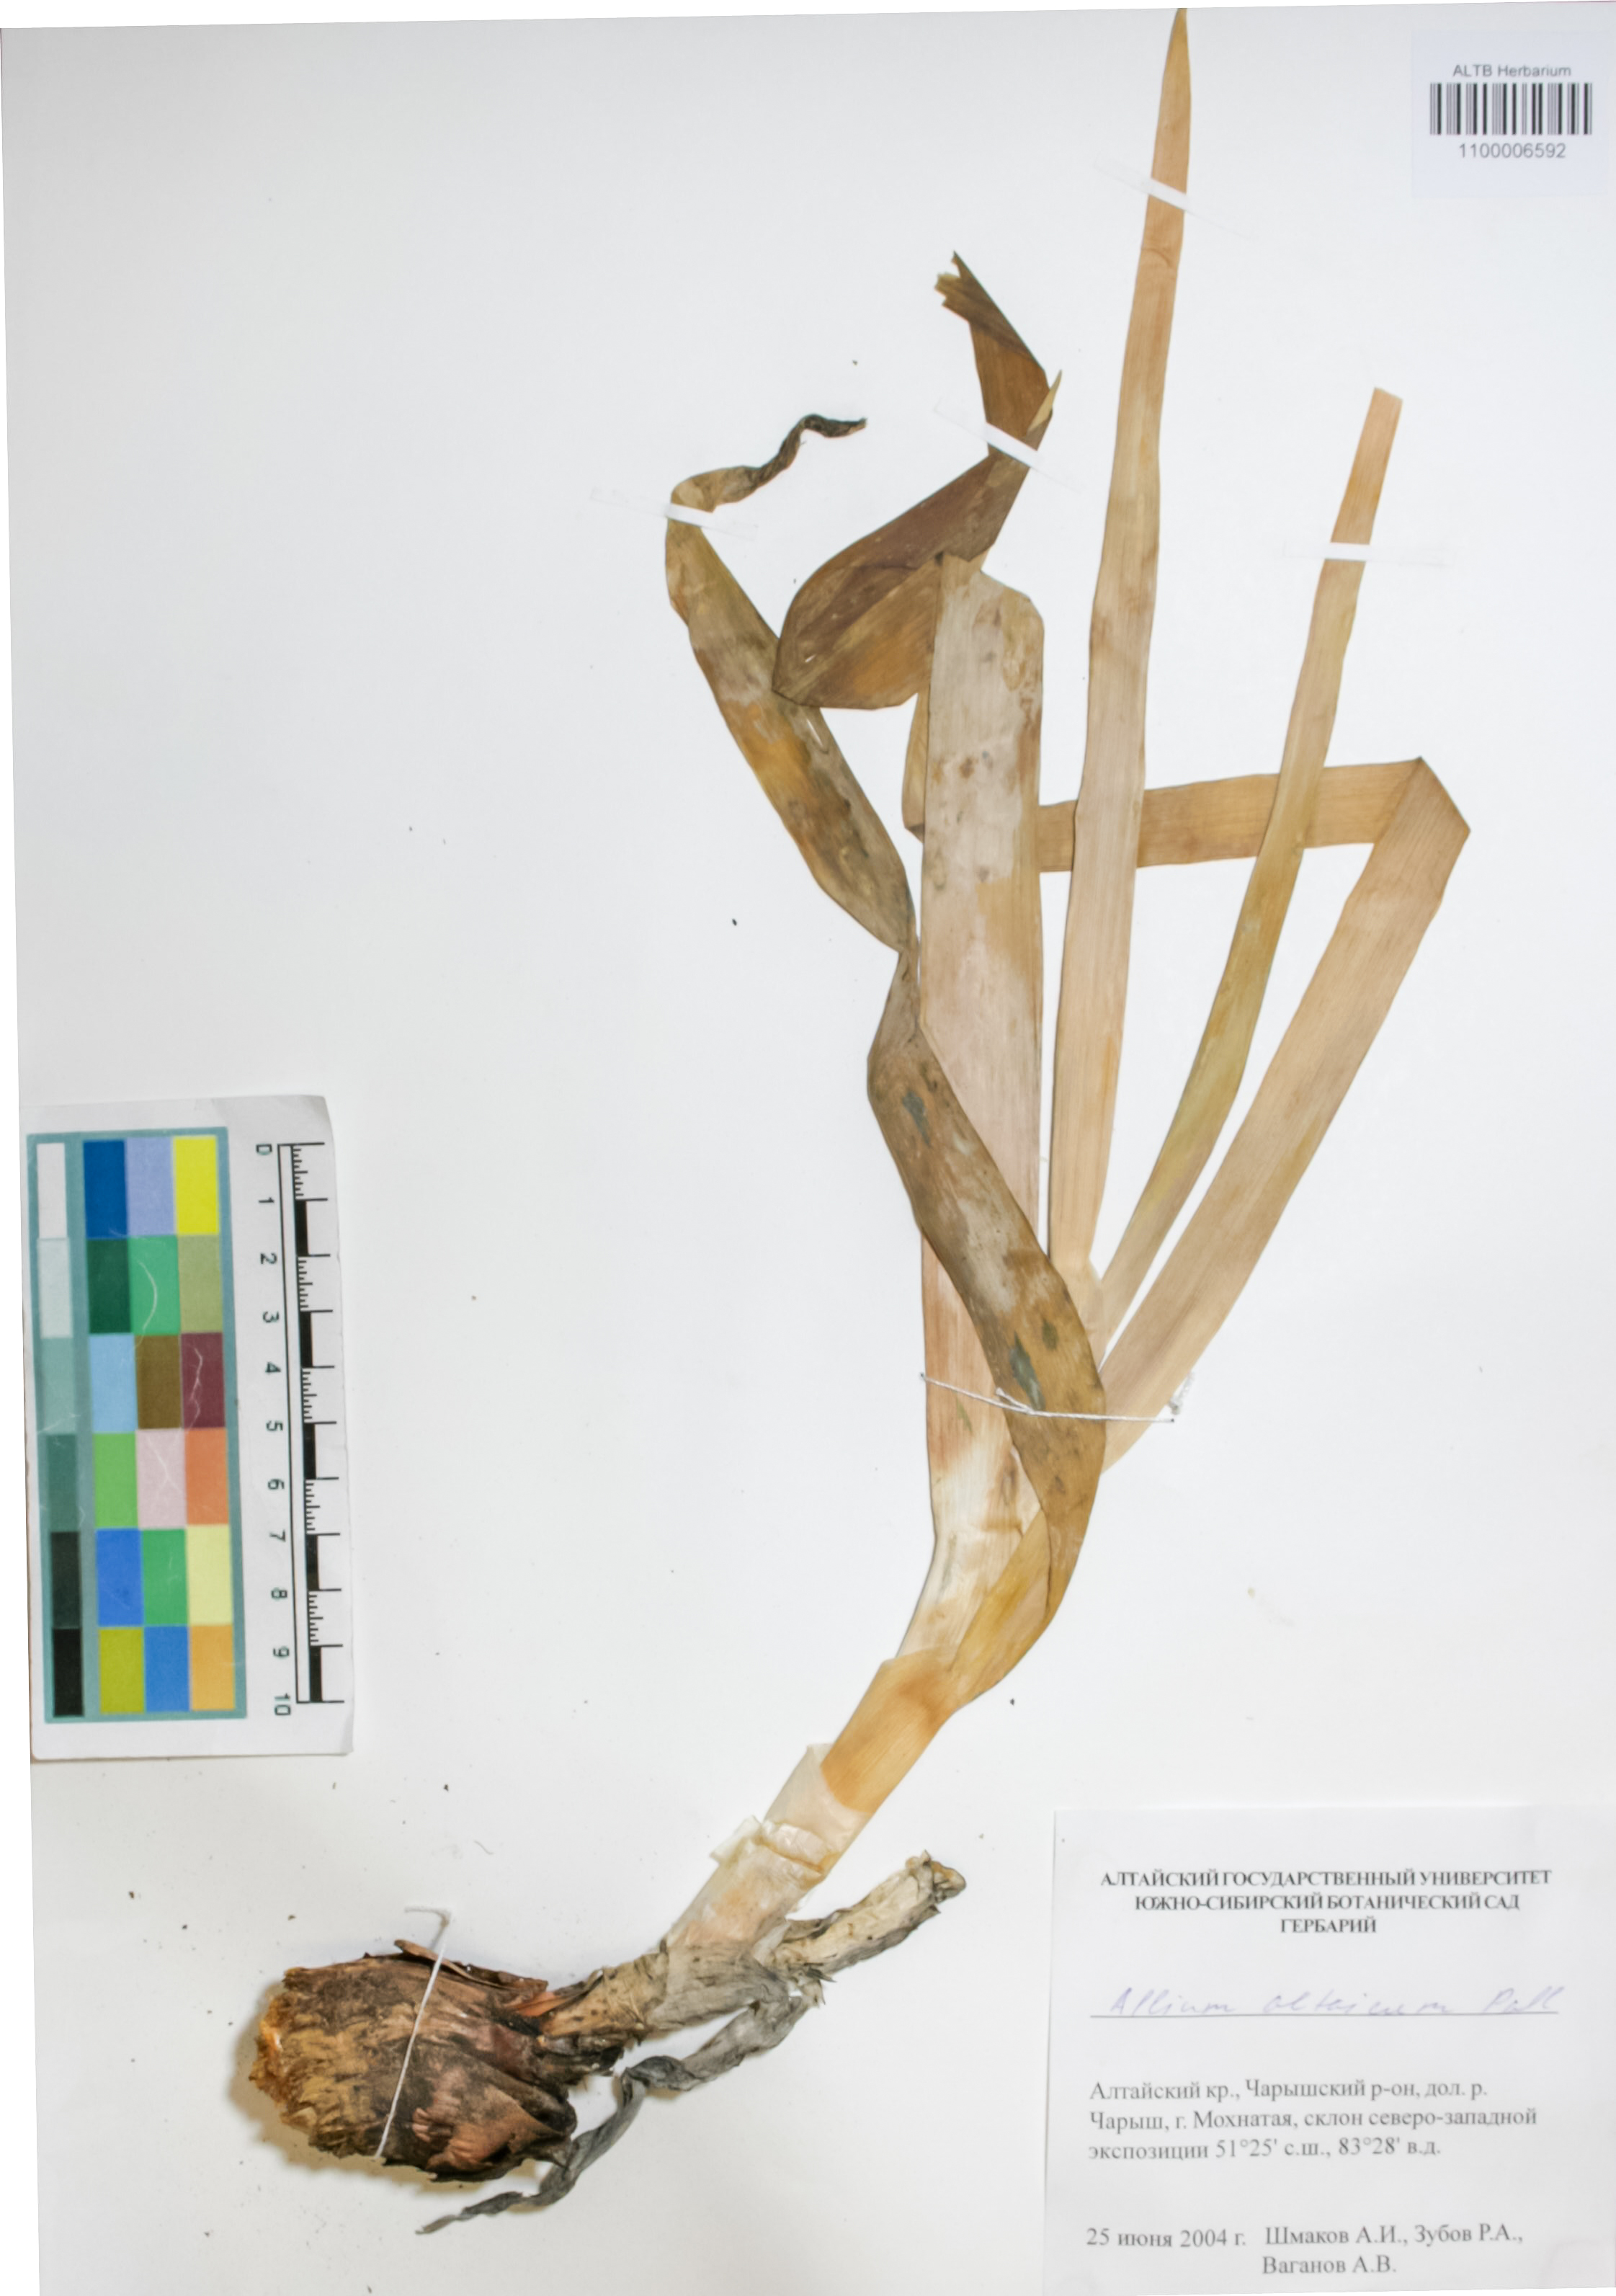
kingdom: Plantae
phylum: Tracheophyta
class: Liliopsida
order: Asparagales
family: Amaryllidaceae
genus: Allium
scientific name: Allium altaicum
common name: Altai onion
